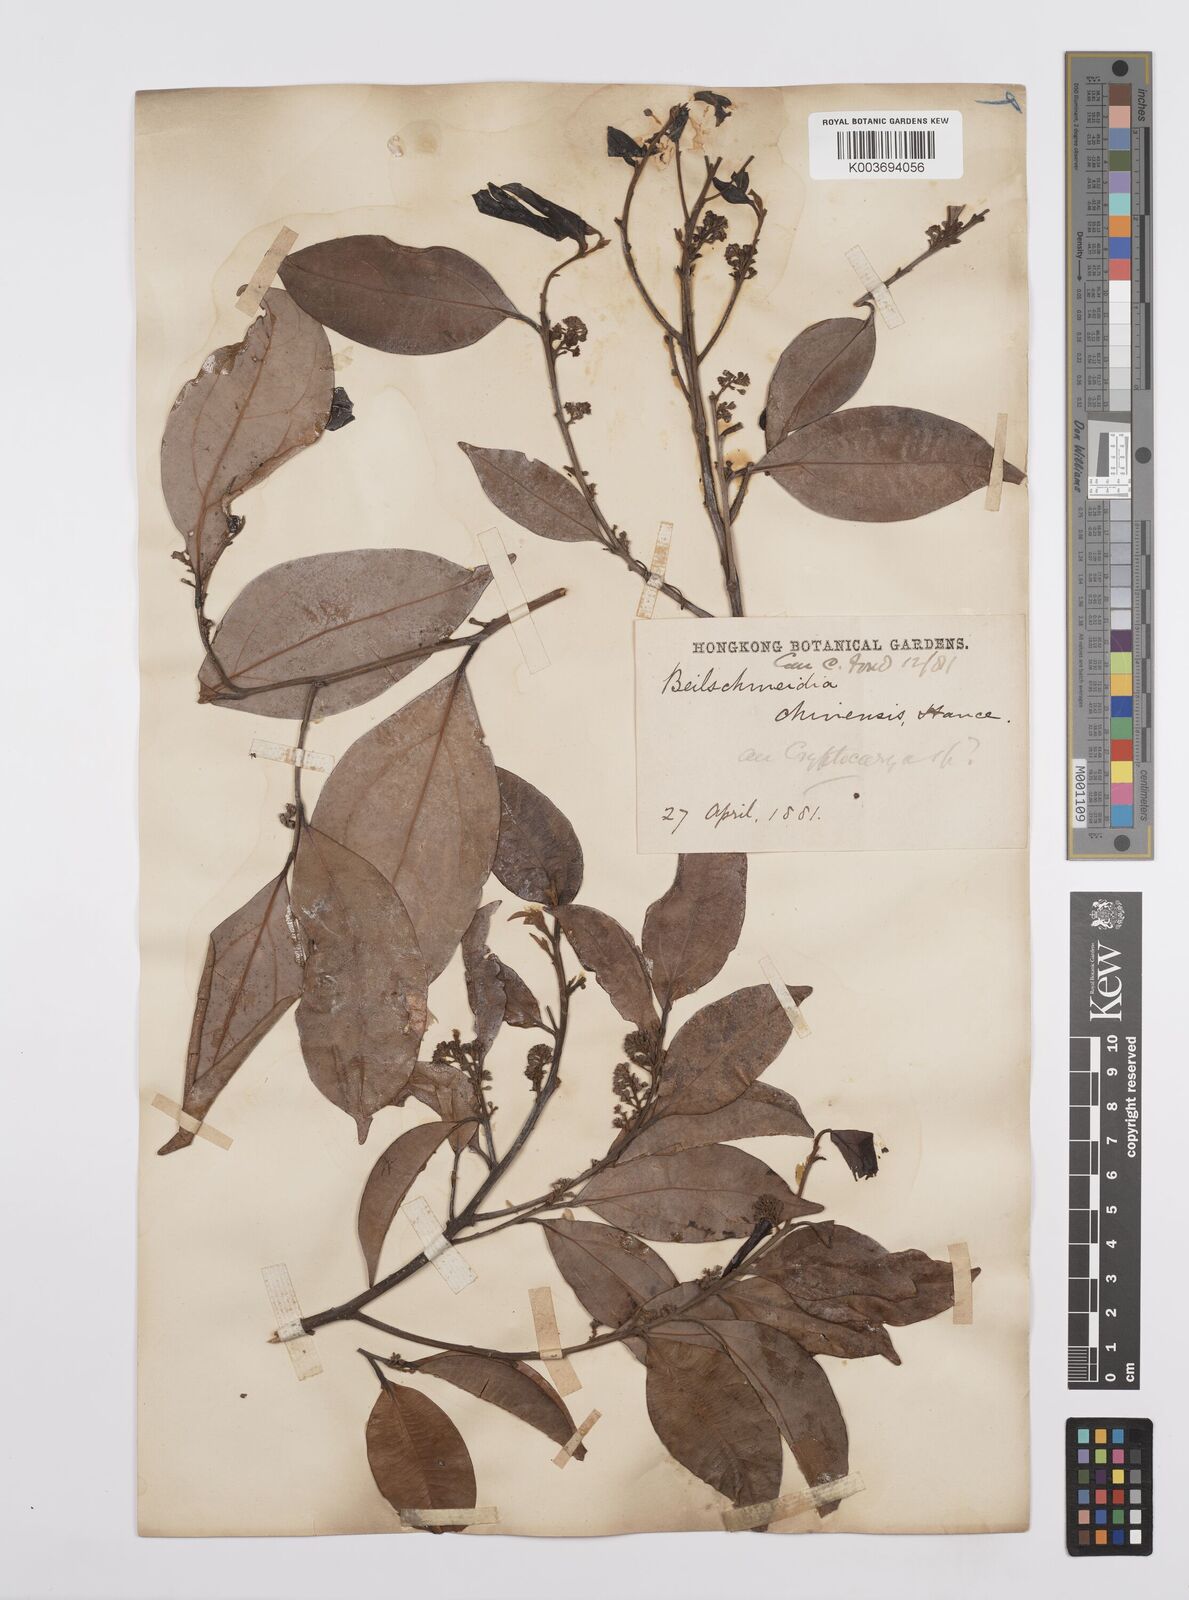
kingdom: Plantae
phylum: Tracheophyta
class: Magnoliopsida
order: Laurales
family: Lauraceae
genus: Cryptocarya
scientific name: Cryptocarya chinensis
